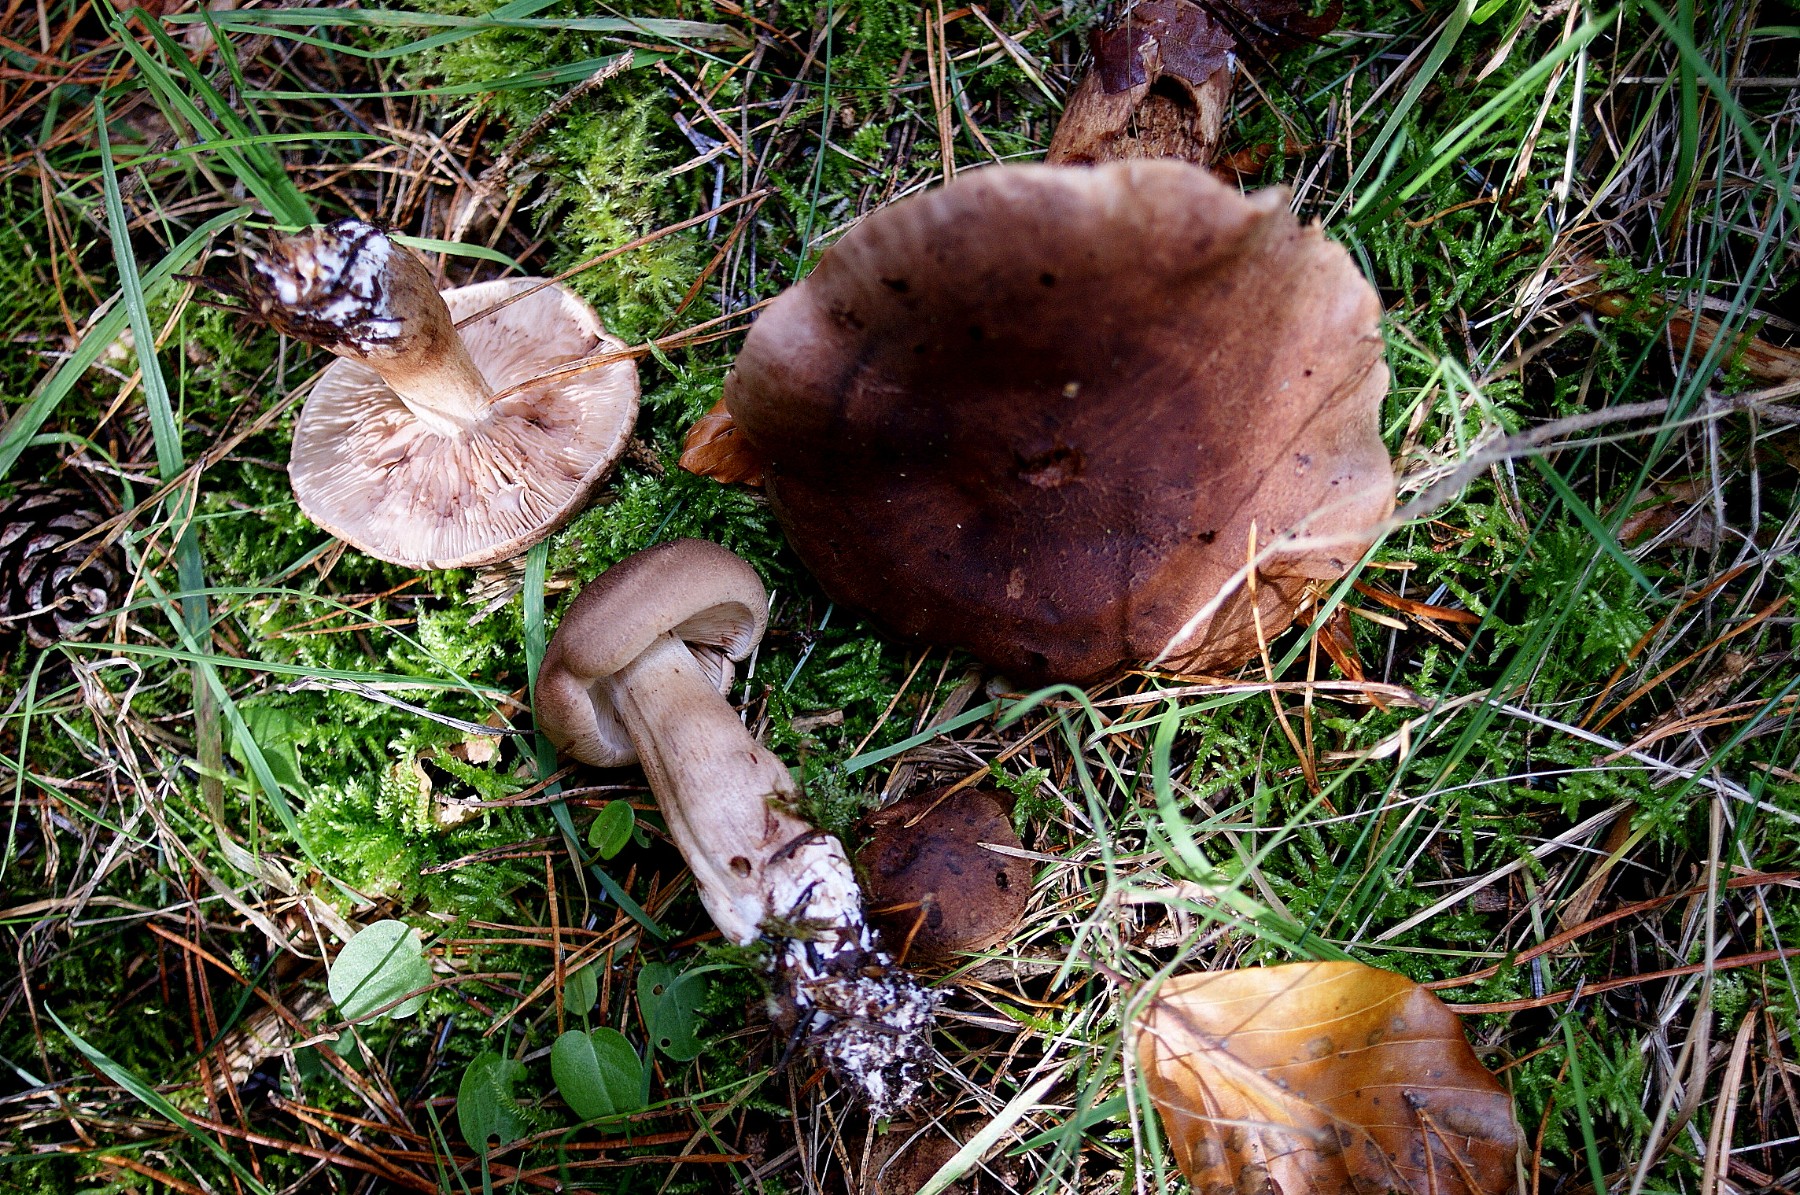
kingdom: Fungi
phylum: Basidiomycota
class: Agaricomycetes
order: Agaricales
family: Tricholomataceae
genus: Tricholoma
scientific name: Tricholoma imbricatum
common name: skællet ridderhat
